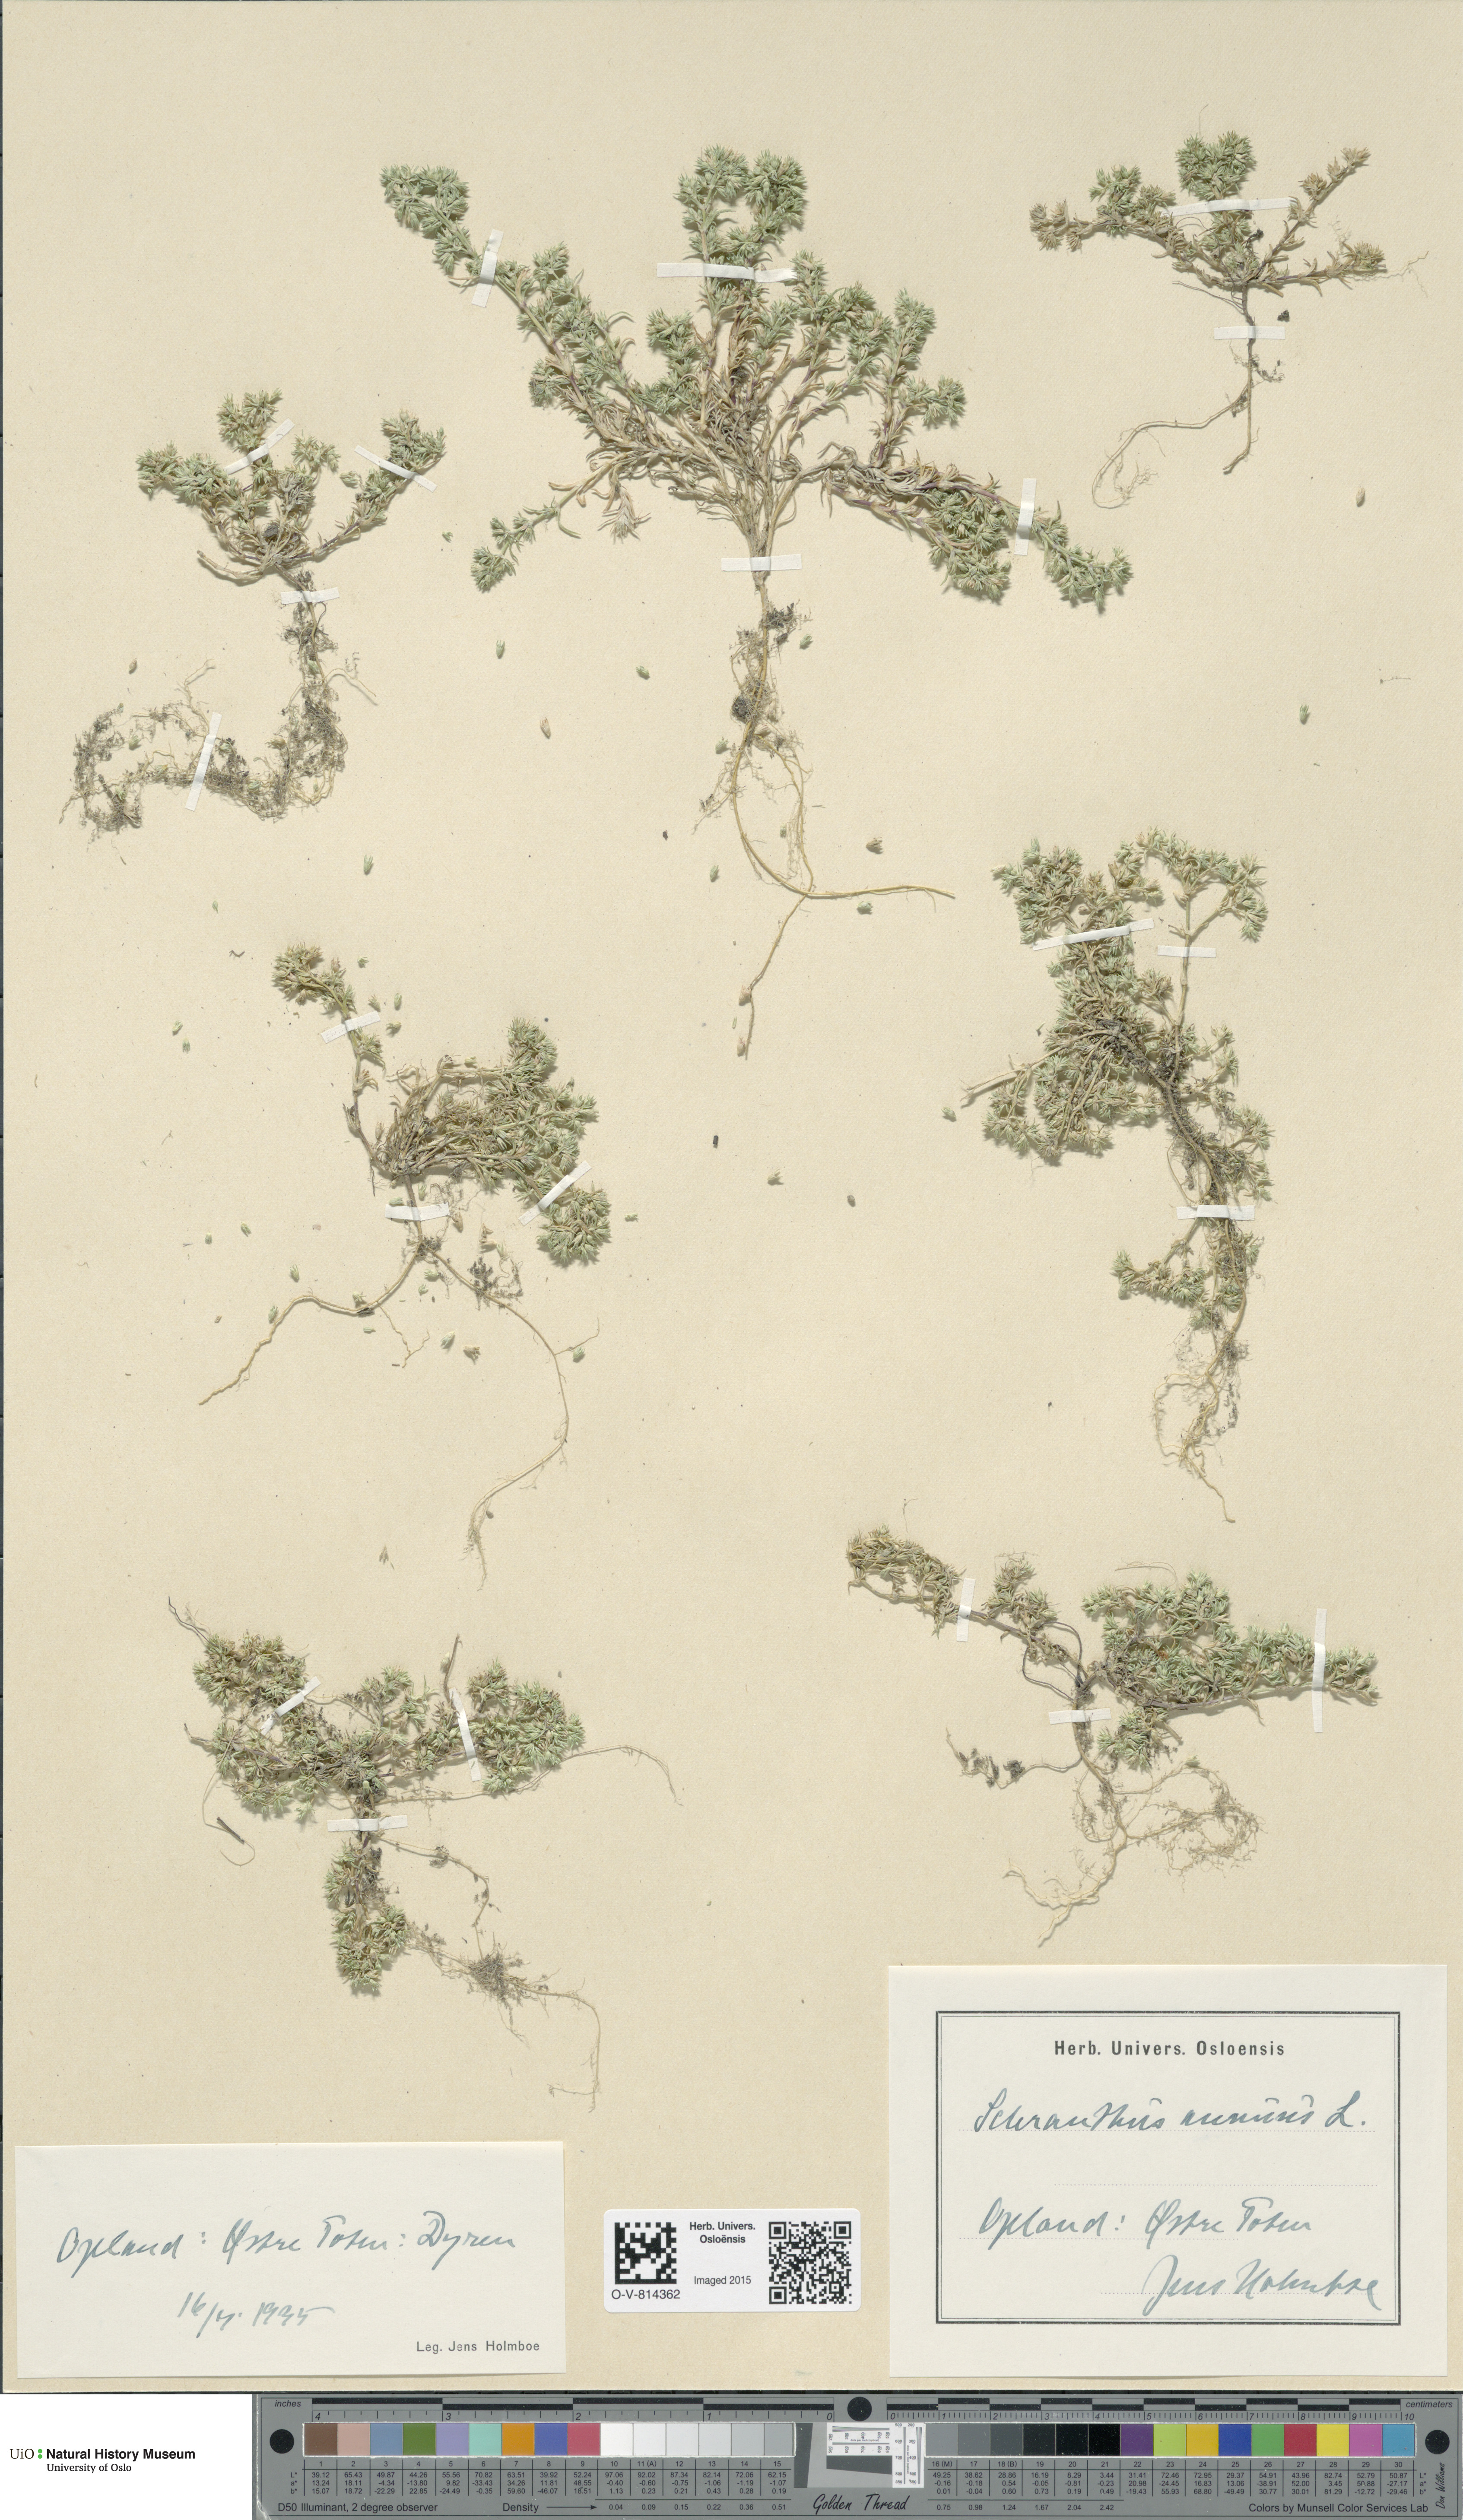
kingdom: Plantae
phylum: Tracheophyta
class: Magnoliopsida
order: Caryophyllales
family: Caryophyllaceae
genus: Scleranthus
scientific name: Scleranthus annuus
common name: Annual knawel
